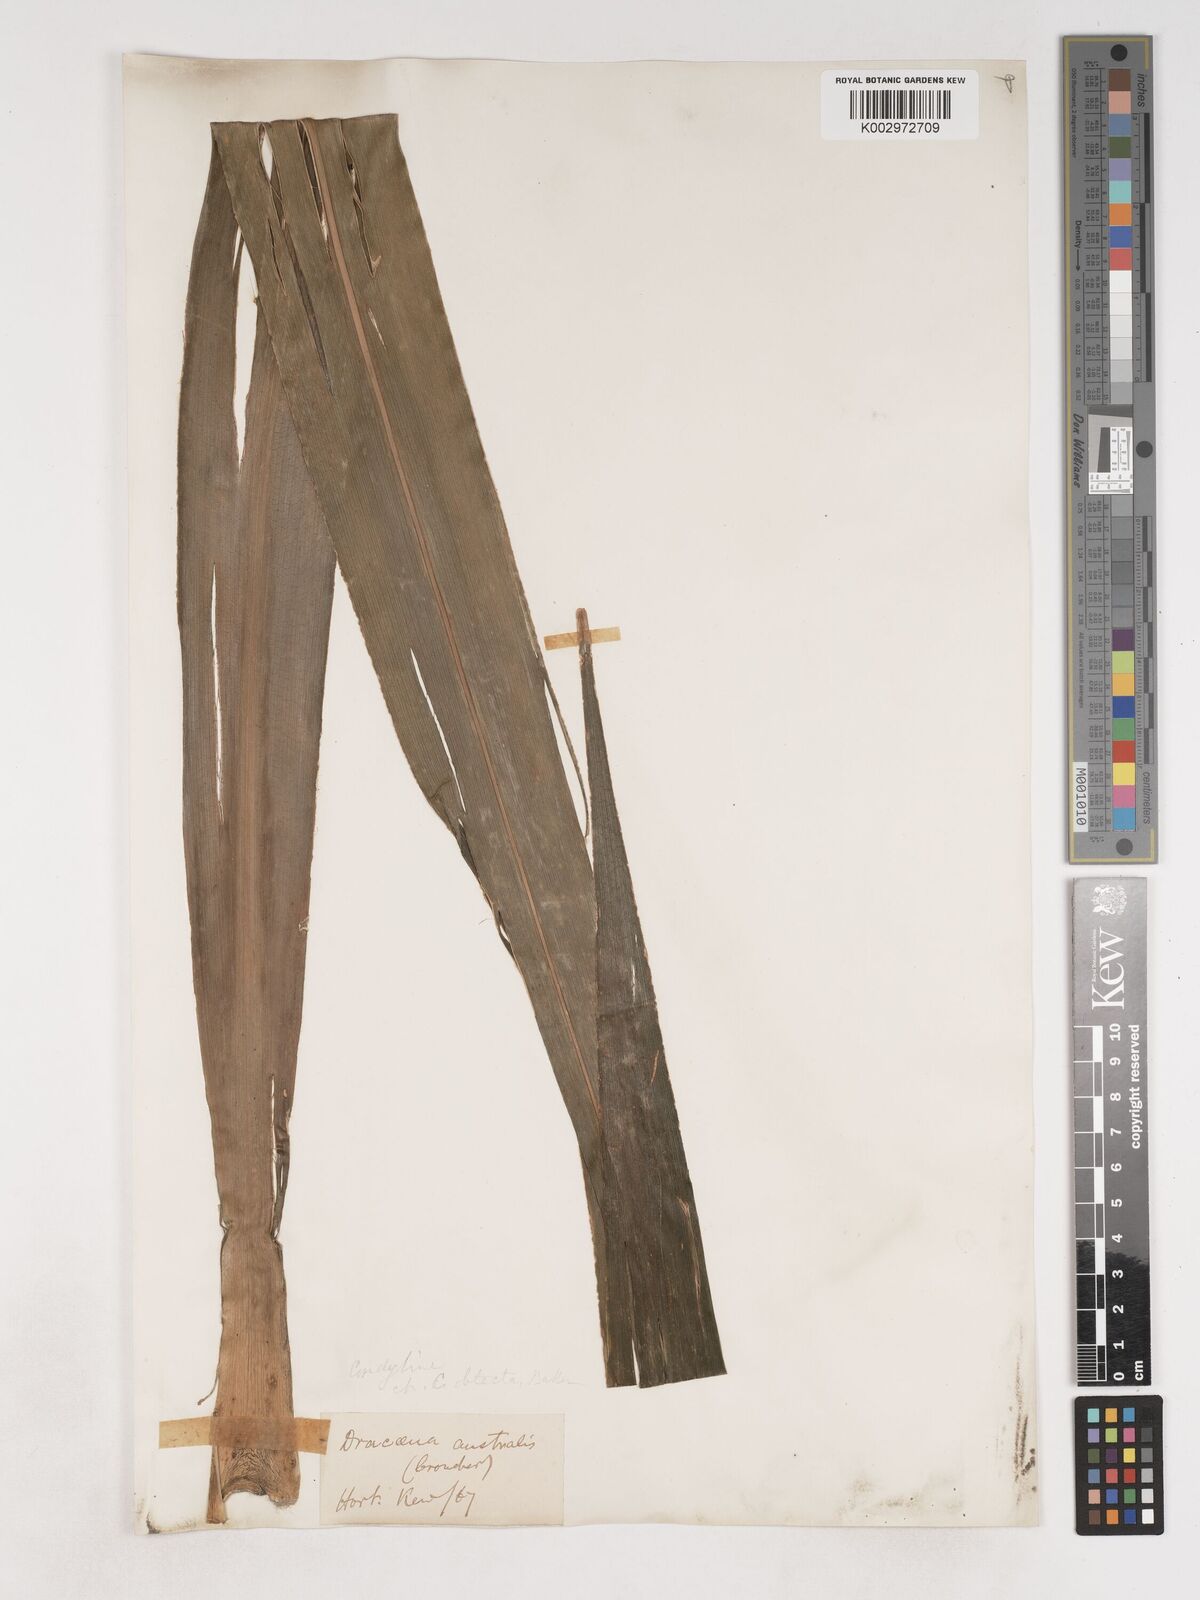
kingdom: Plantae
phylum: Tracheophyta
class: Liliopsida
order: Asparagales
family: Asparagaceae
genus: Cordyline
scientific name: Cordyline obtecta
